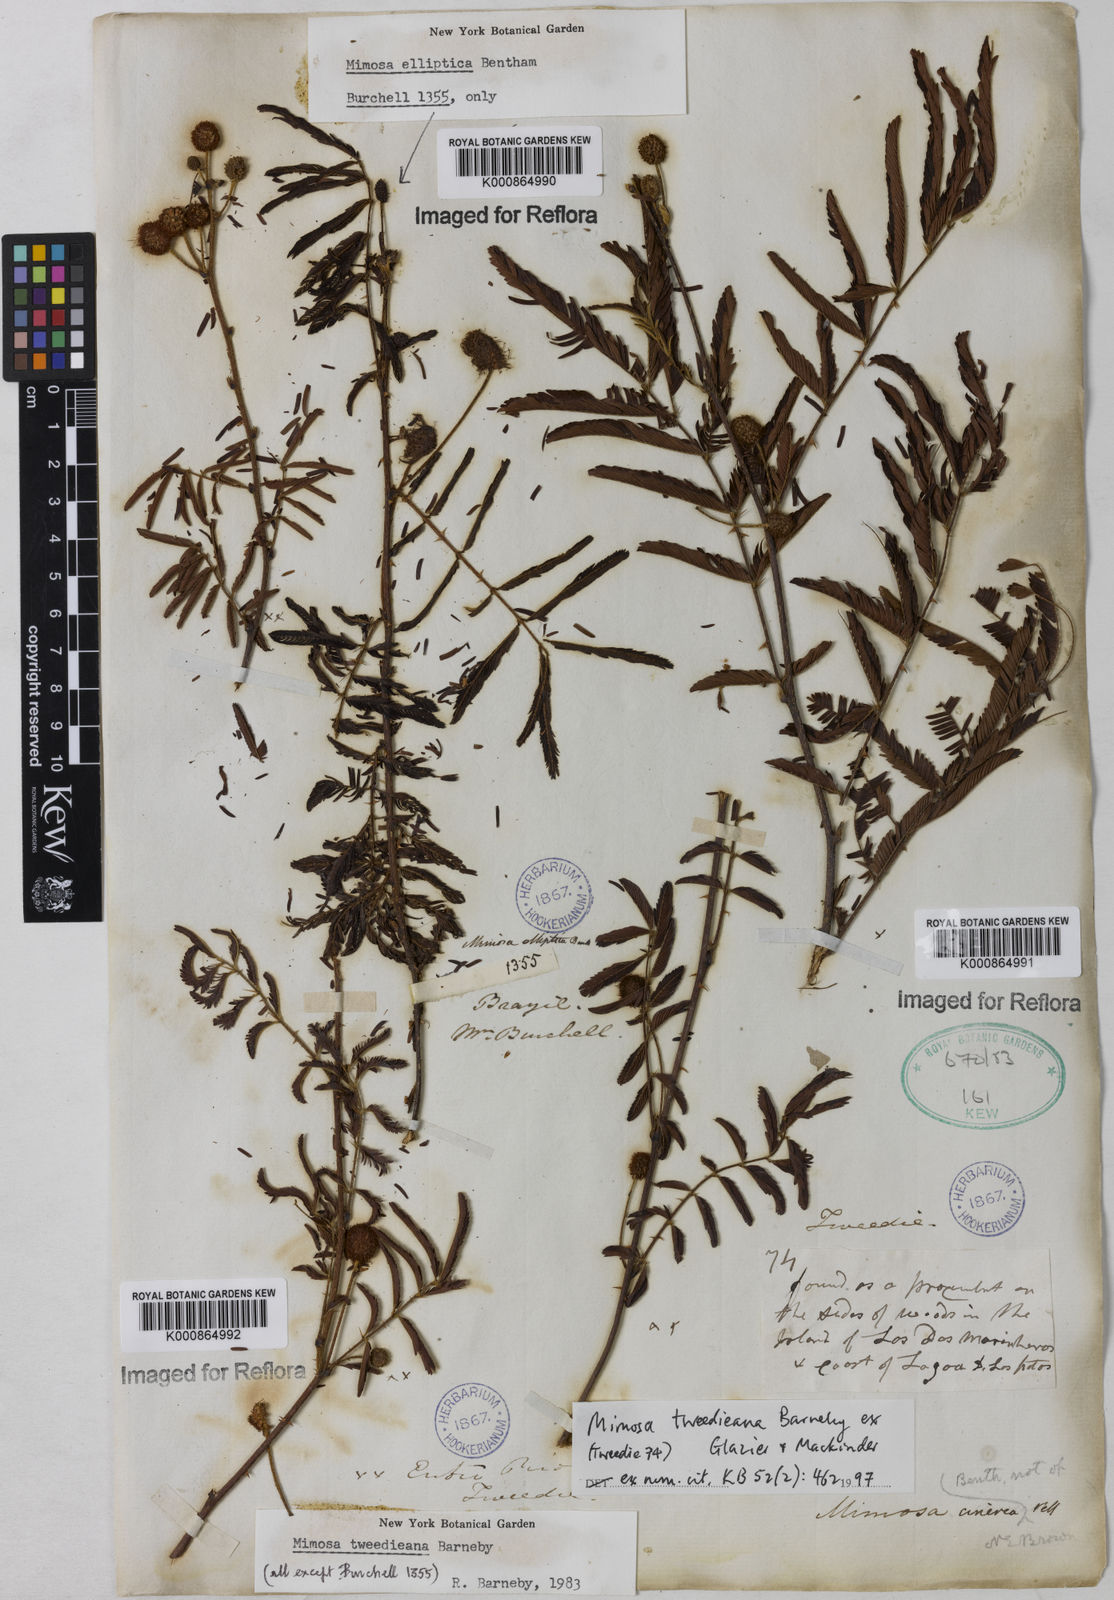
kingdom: Plantae
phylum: Tracheophyta
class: Magnoliopsida
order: Fabales
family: Fabaceae
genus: Mimosa
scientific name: Mimosa tweedieana
